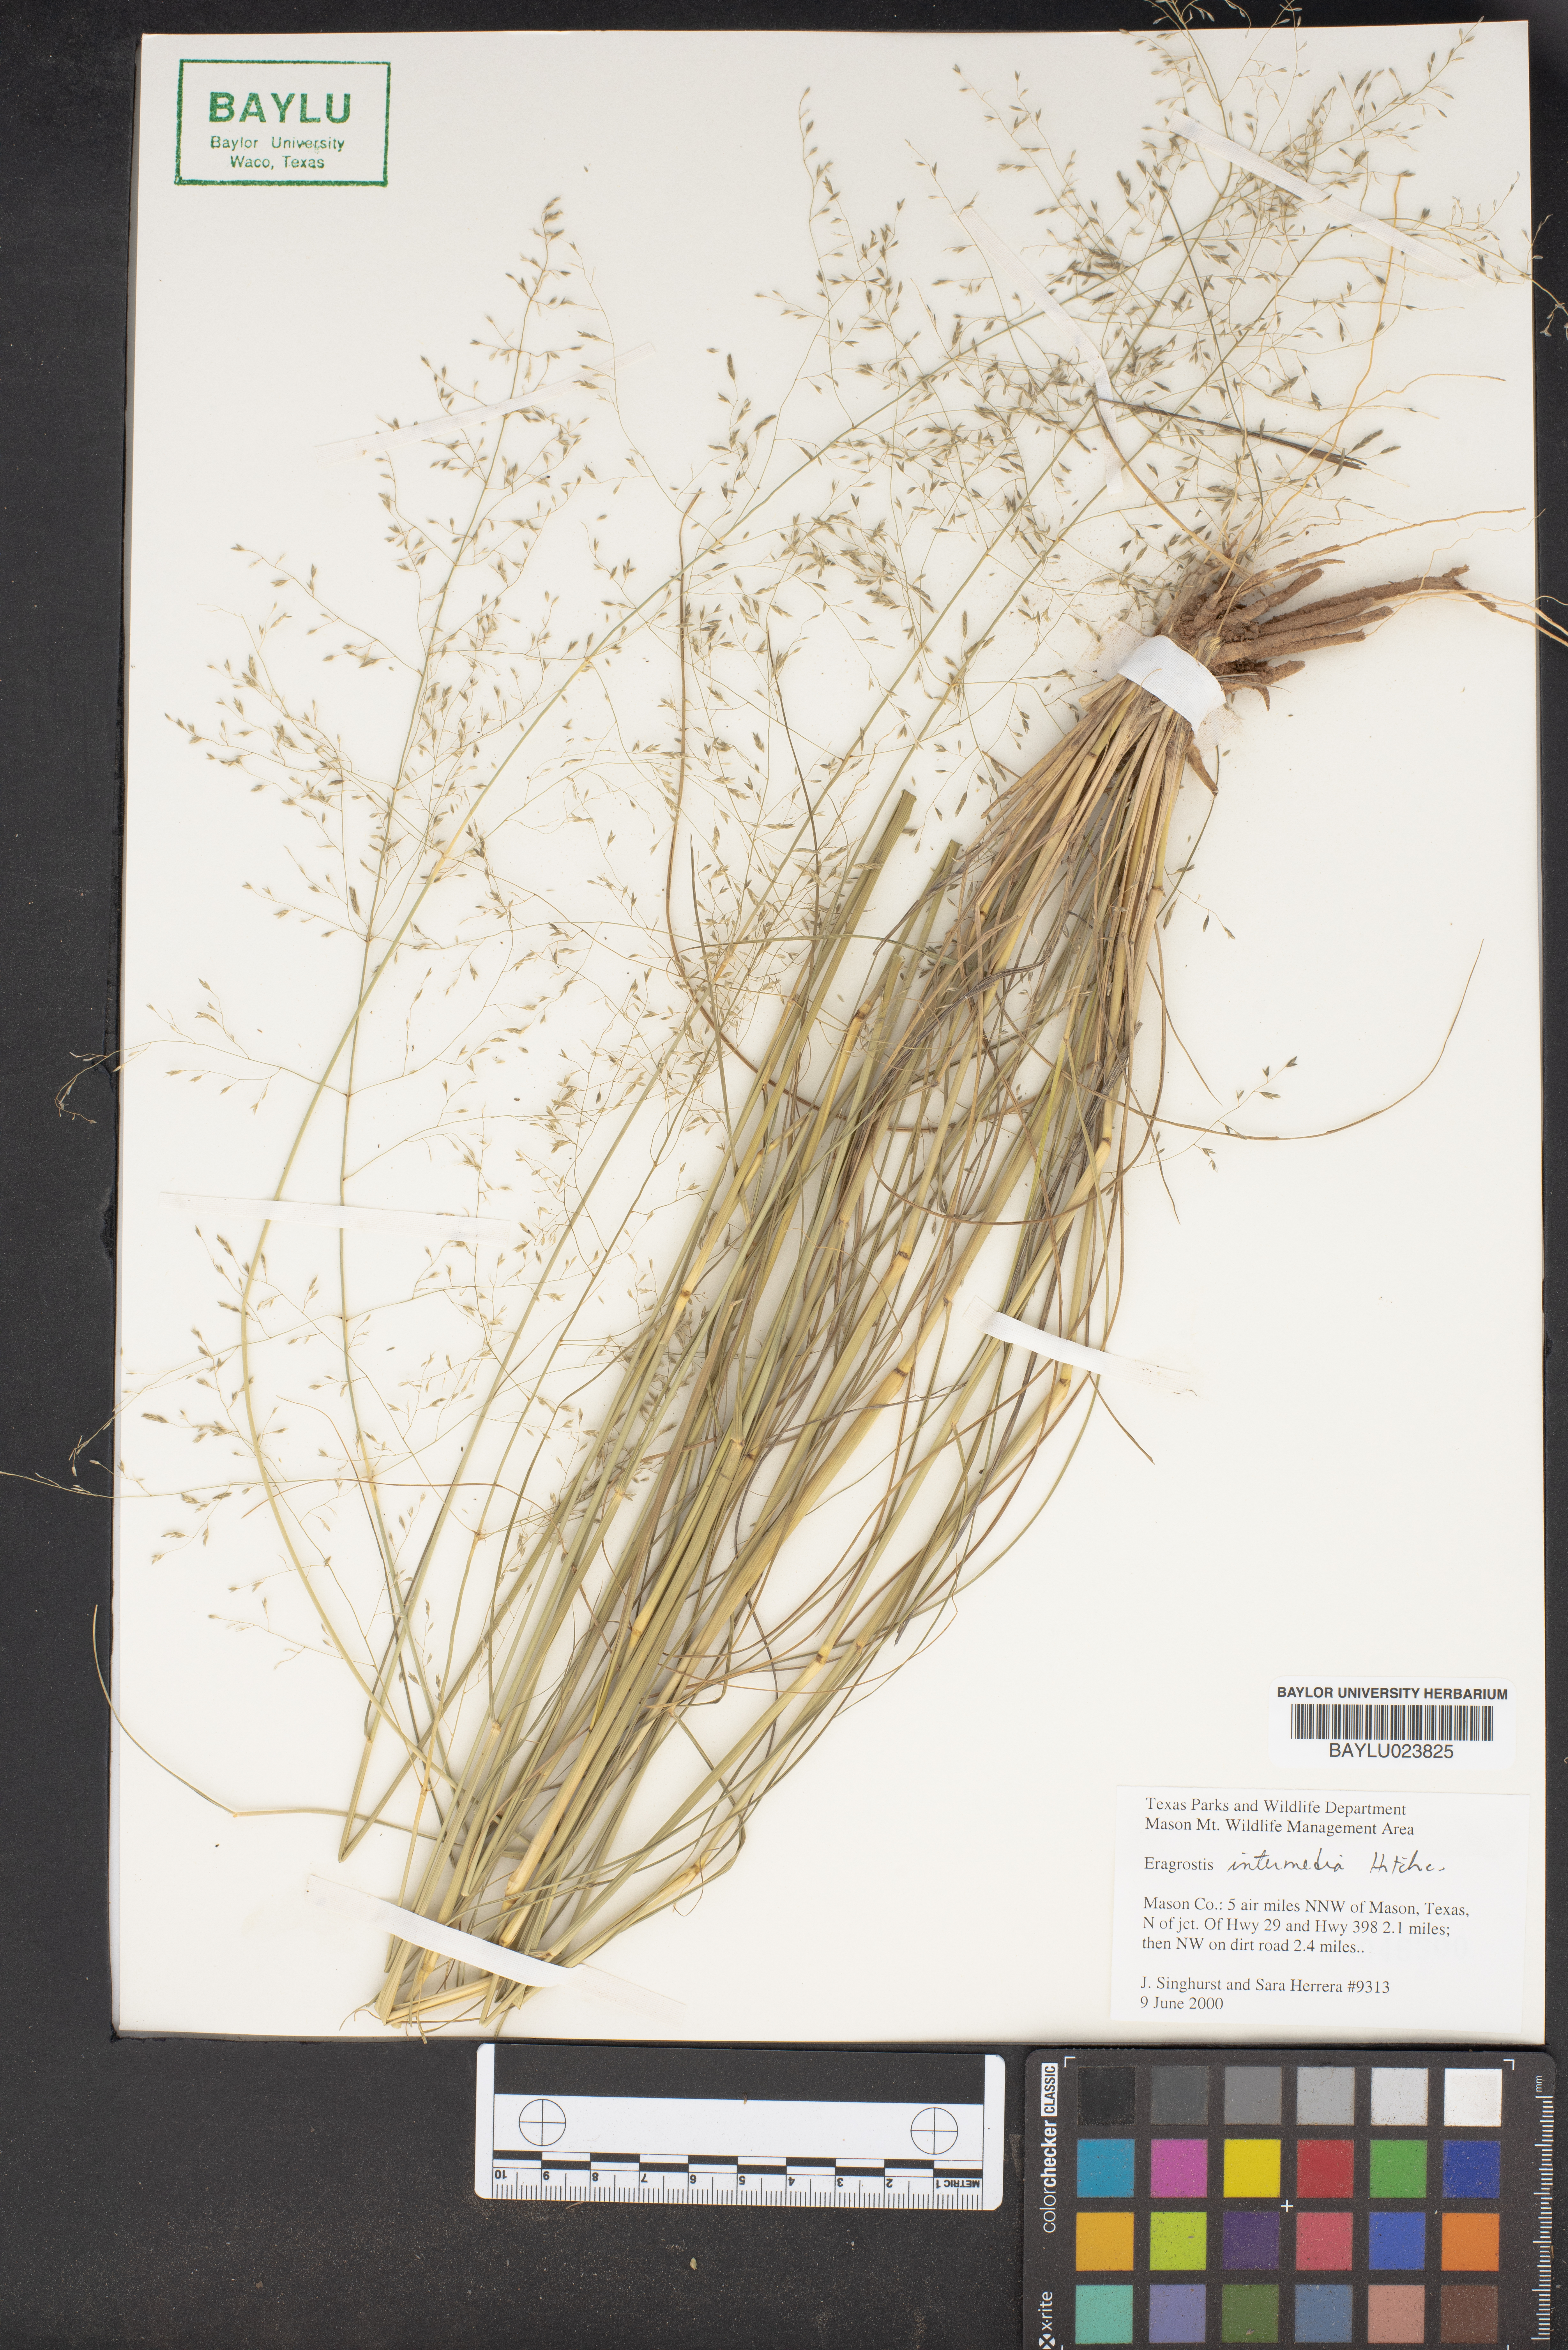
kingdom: Plantae
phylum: Tracheophyta
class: Liliopsida
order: Poales
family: Poaceae
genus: Eragrostis
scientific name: Eragrostis intermedia
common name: Plains love grass
